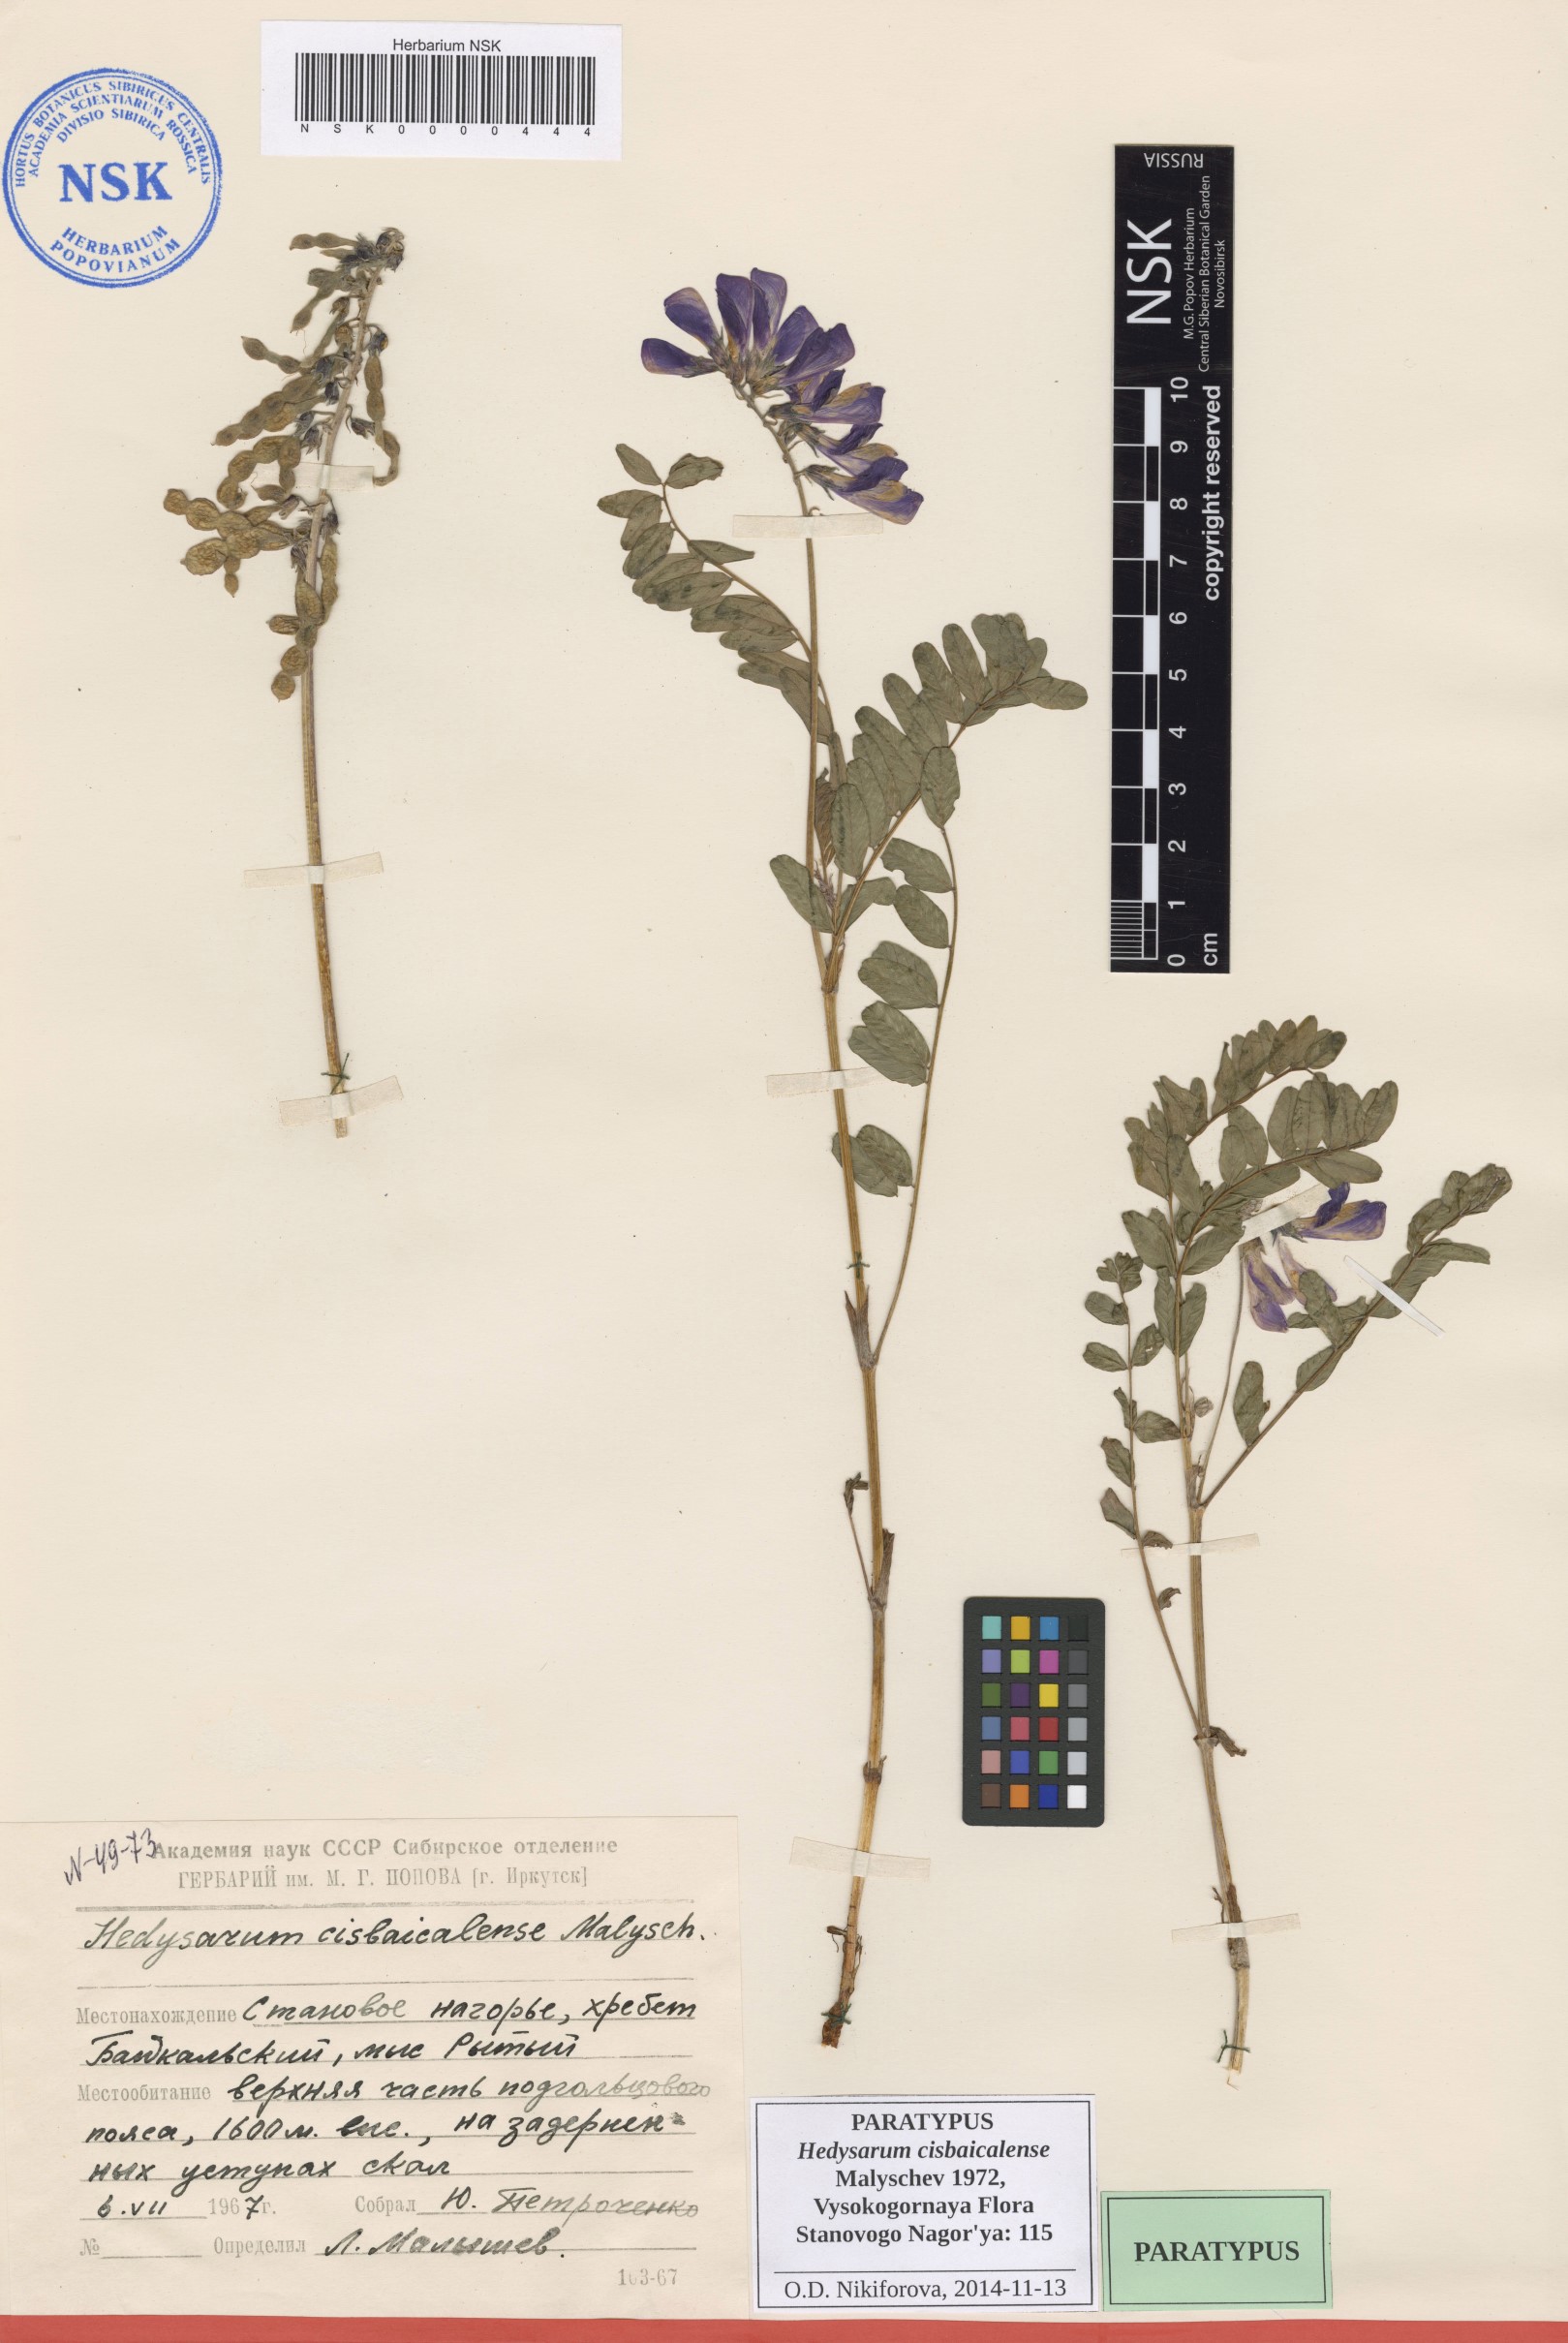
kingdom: Plantae
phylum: Tracheophyta
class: Magnoliopsida
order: Fabales
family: Fabaceae
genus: Hedysarum
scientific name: Hedysarum cisbaicalense
